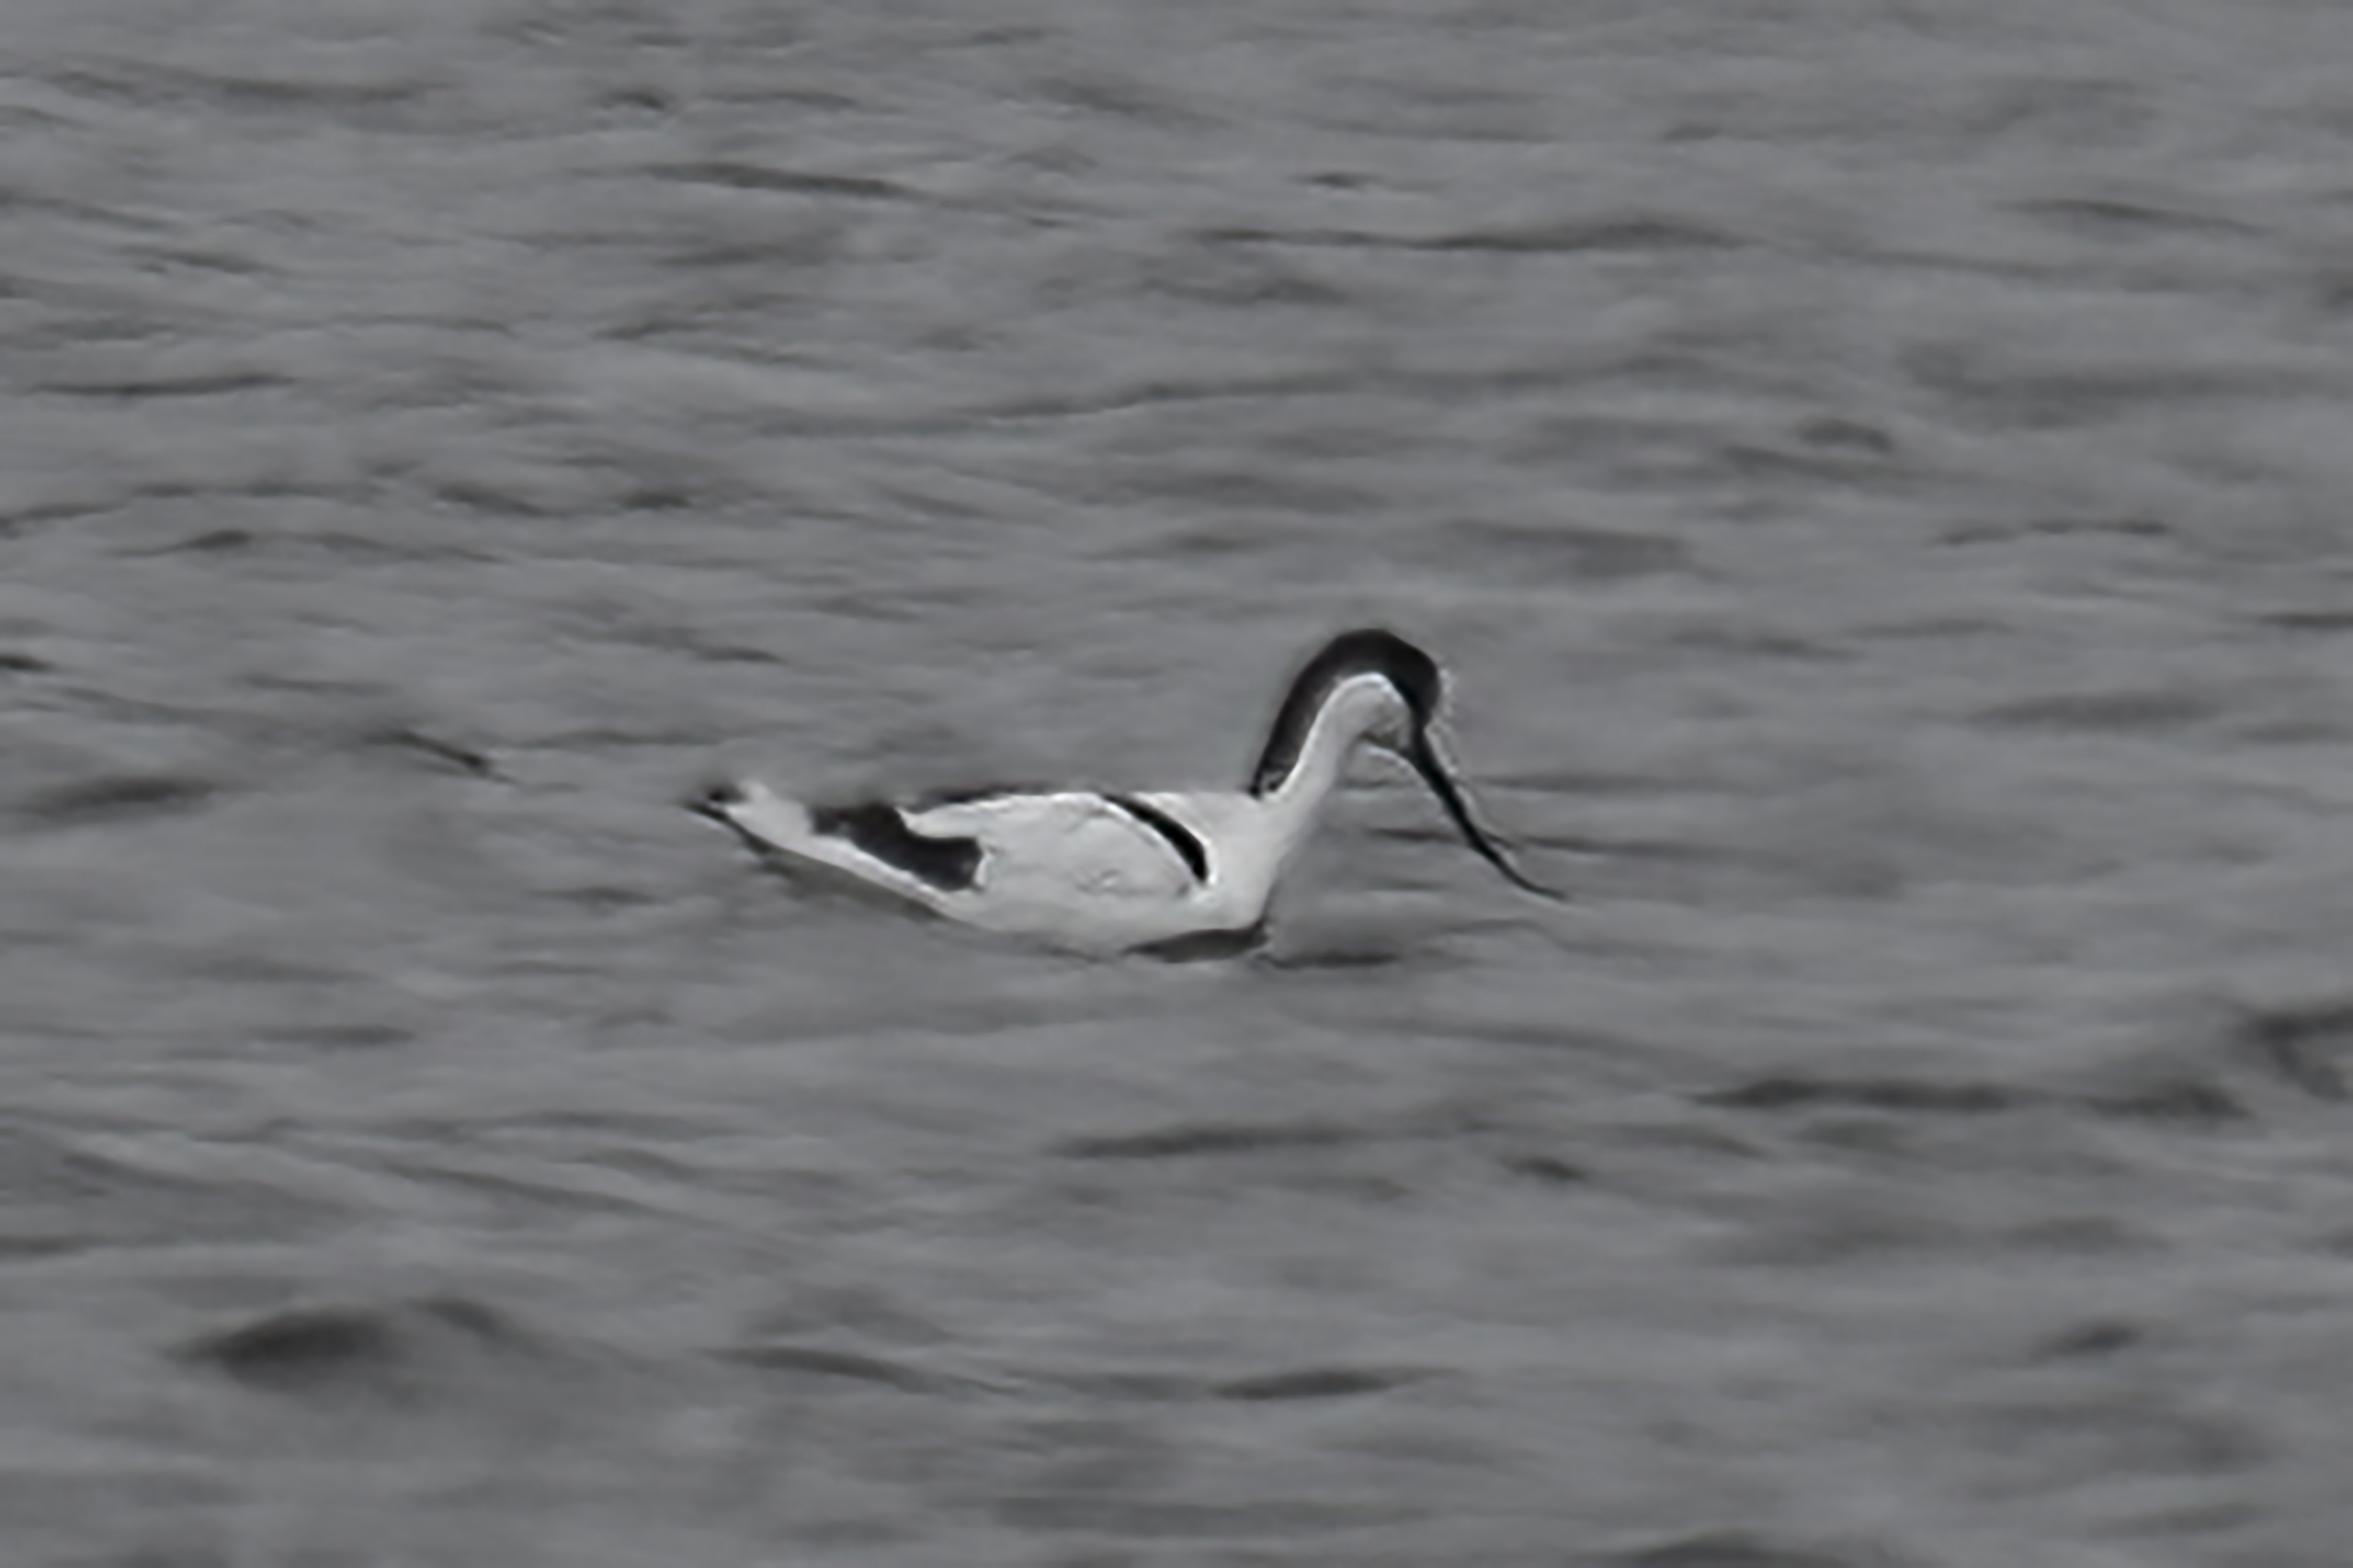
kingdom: Animalia
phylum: Chordata
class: Aves
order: Charadriiformes
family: Recurvirostridae
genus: Recurvirostra
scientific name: Recurvirostra avosetta
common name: Klyde
